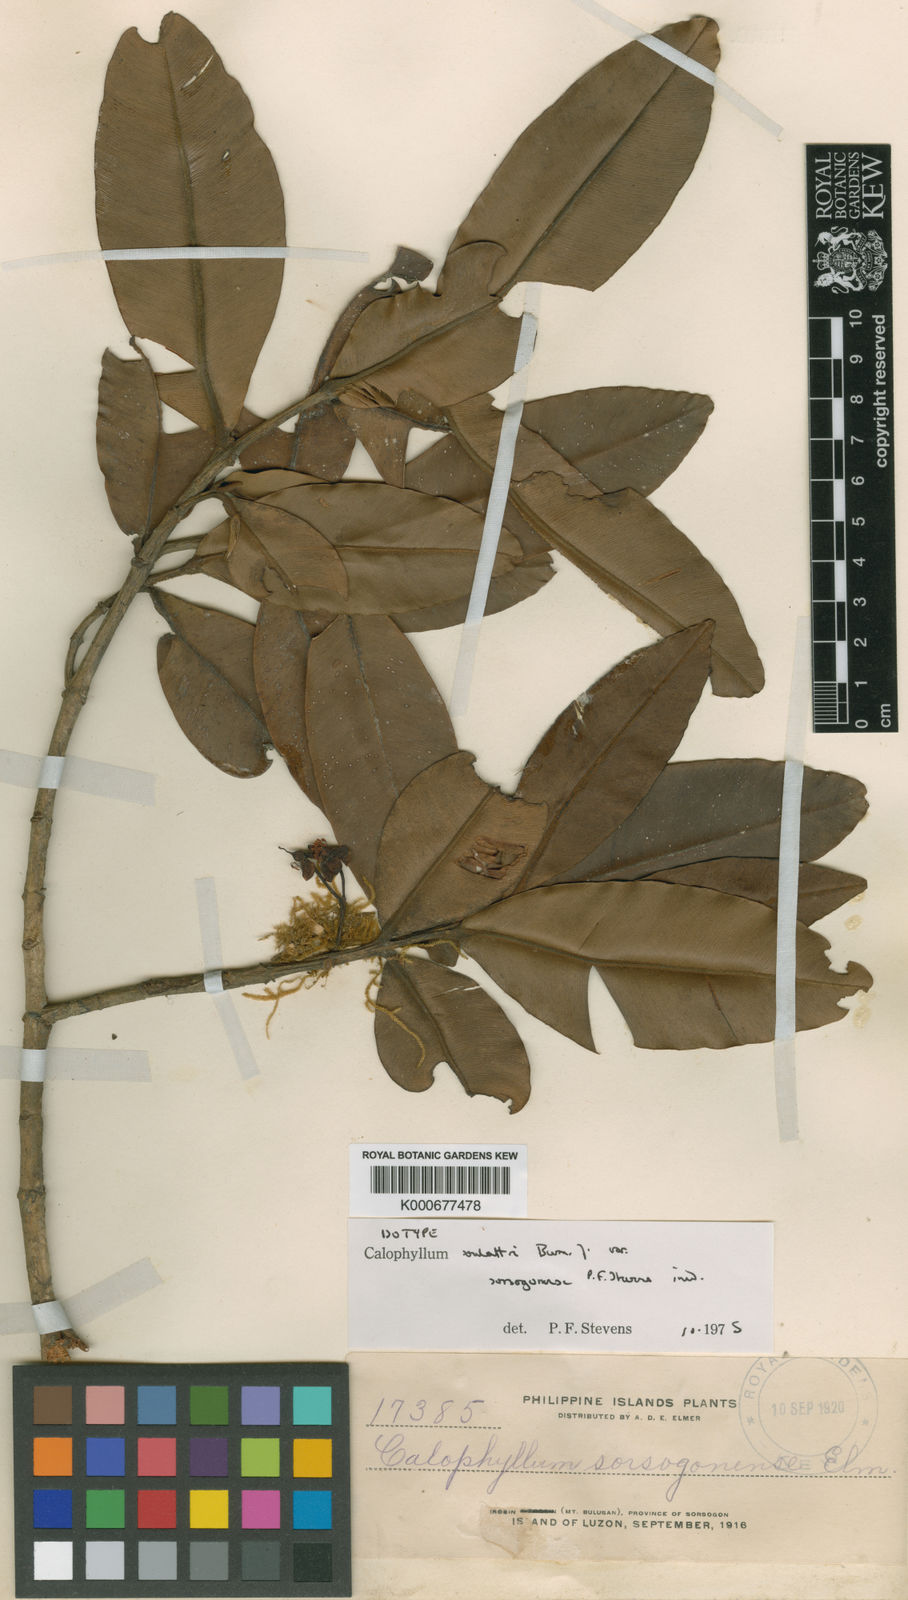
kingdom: Plantae
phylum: Tracheophyta
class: Magnoliopsida
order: Malpighiales
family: Calophyllaceae
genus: Calophyllum
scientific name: Calophyllum soulattri
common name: Bitangoor boonot
